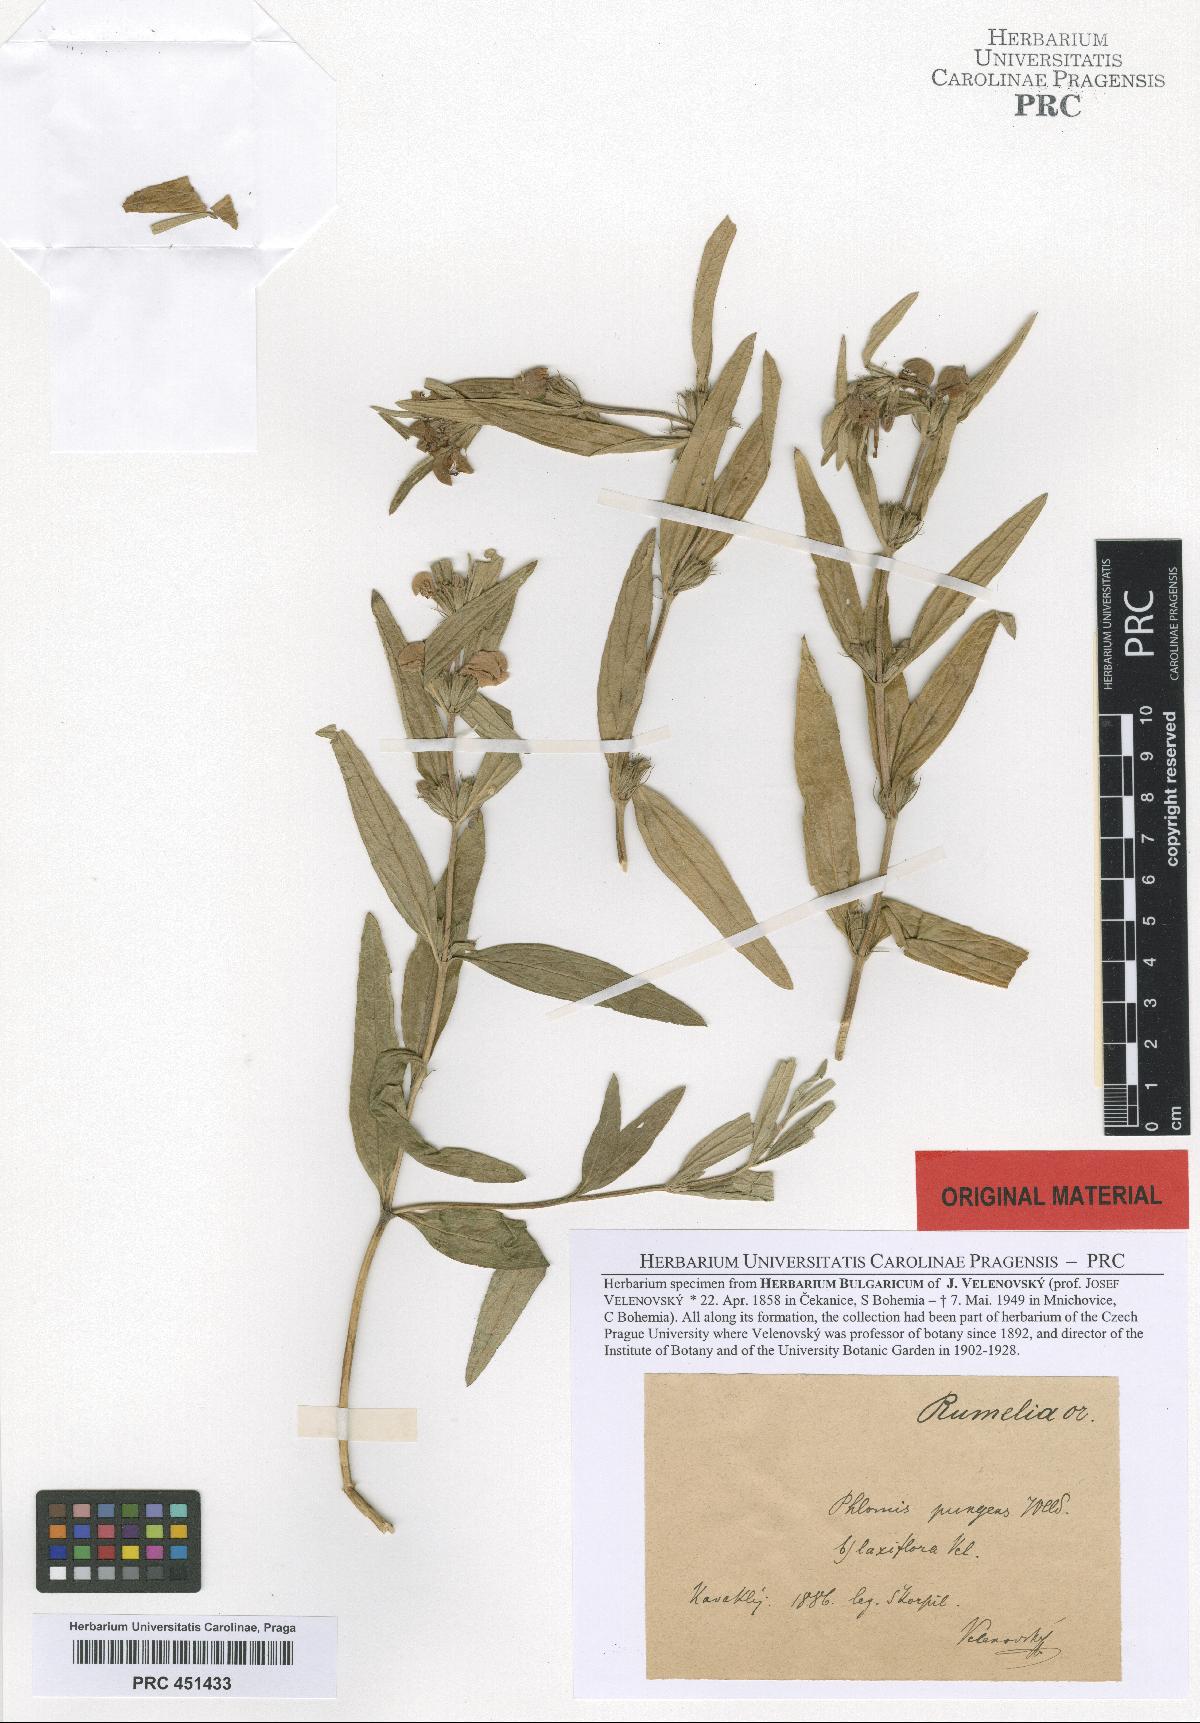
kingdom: Plantae
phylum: Tracheophyta
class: Magnoliopsida
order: Lamiales
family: Lamiaceae
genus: Phlomis
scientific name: Phlomis herba-venti
